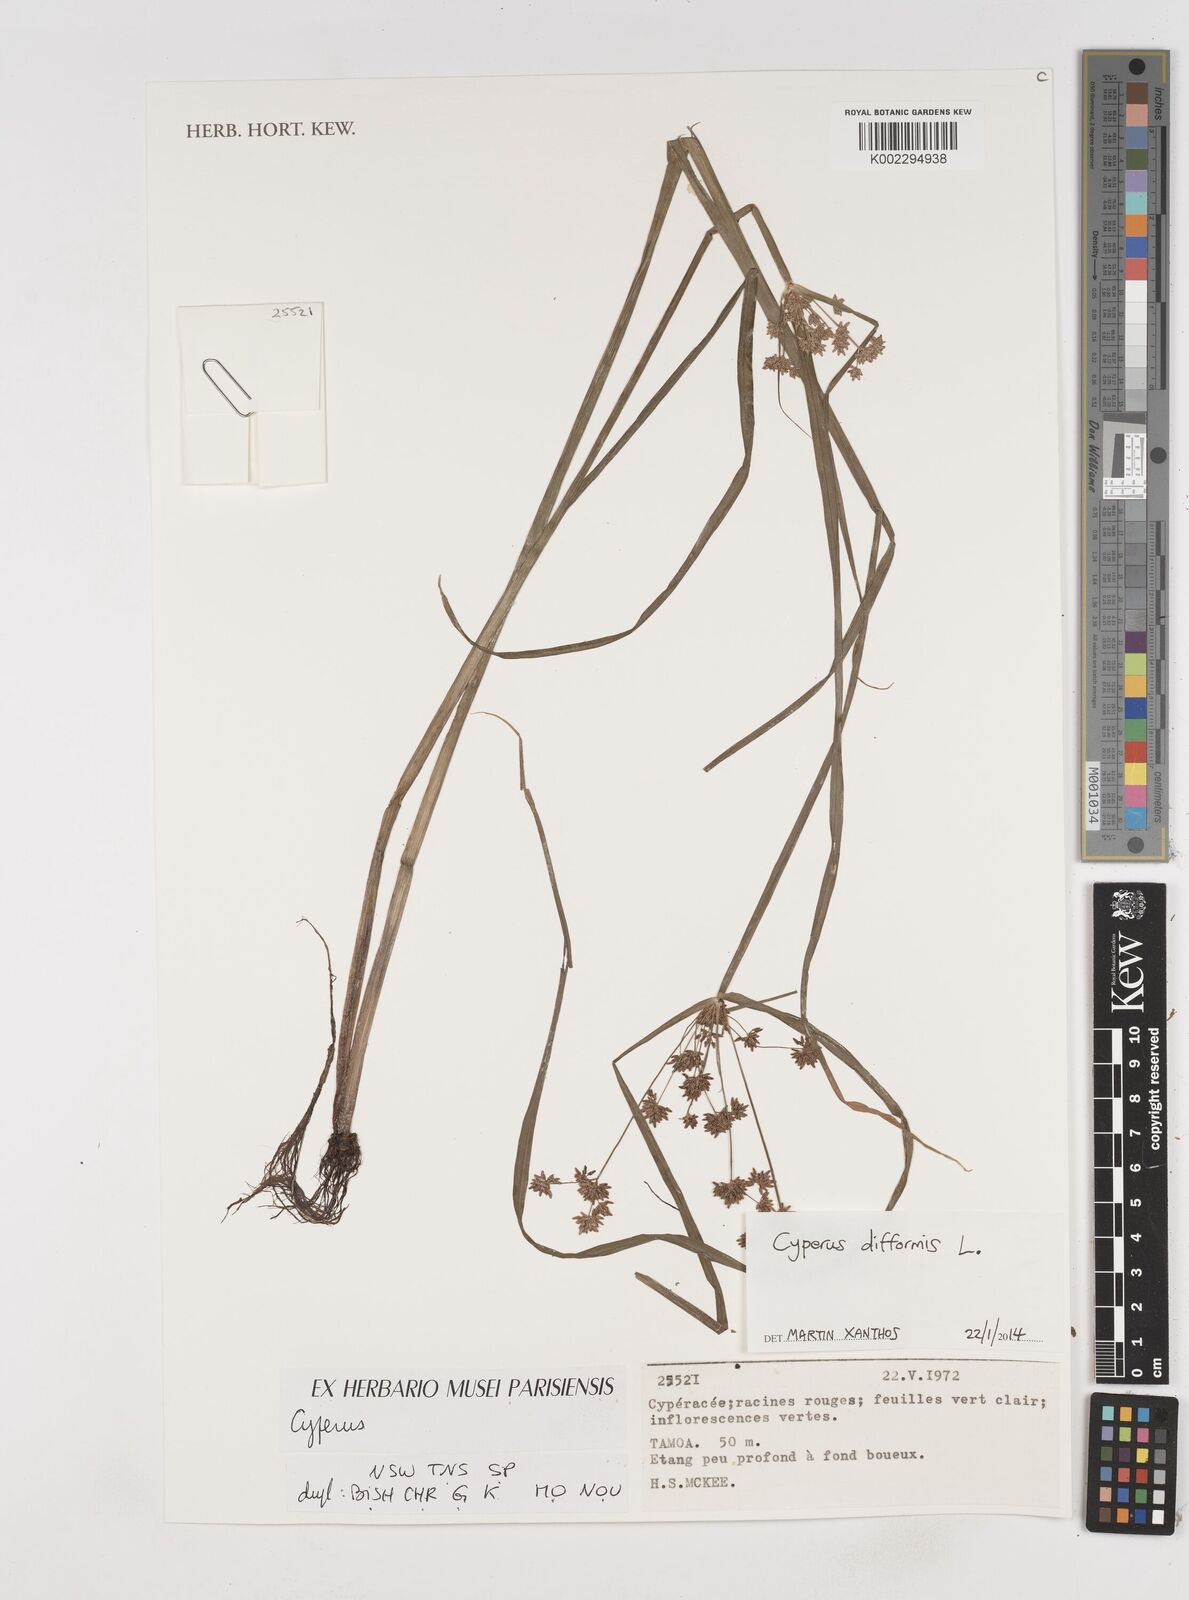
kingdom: Plantae
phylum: Tracheophyta
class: Liliopsida
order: Poales
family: Cyperaceae
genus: Cyperus
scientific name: Cyperus difformis
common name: Variable flatsedge
